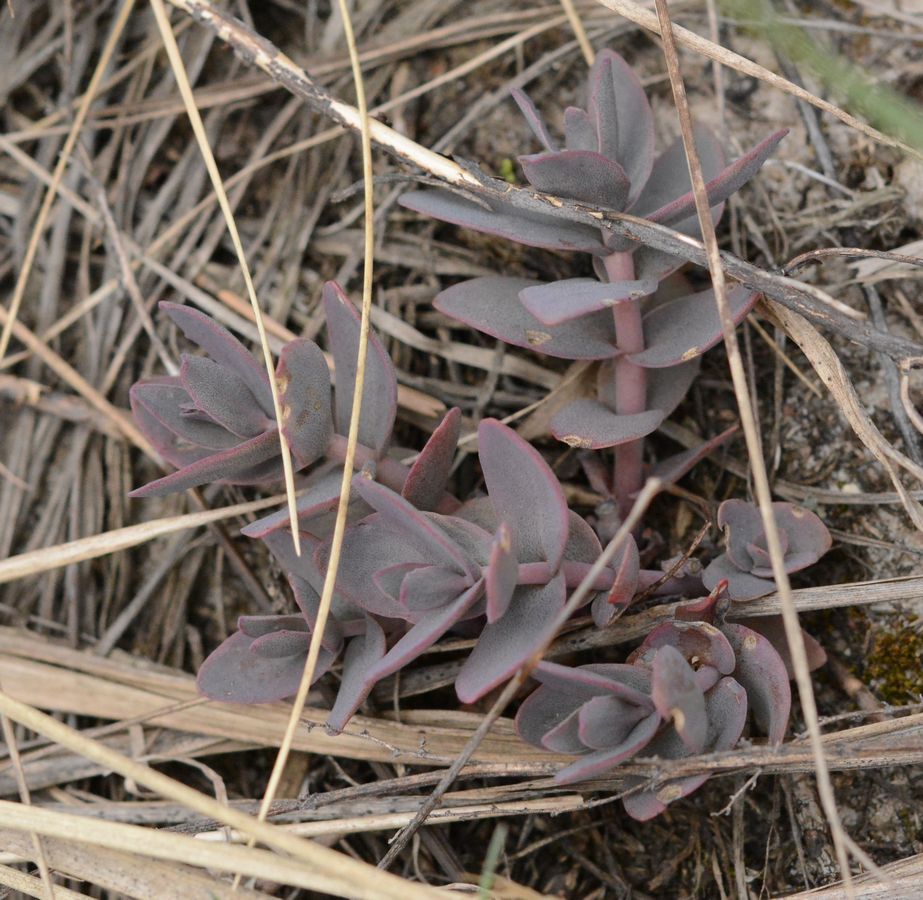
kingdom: Plantae
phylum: Tracheophyta
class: Magnoliopsida
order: Saxifragales
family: Crassulaceae
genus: Hylotelephium
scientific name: Hylotelephium telephium
